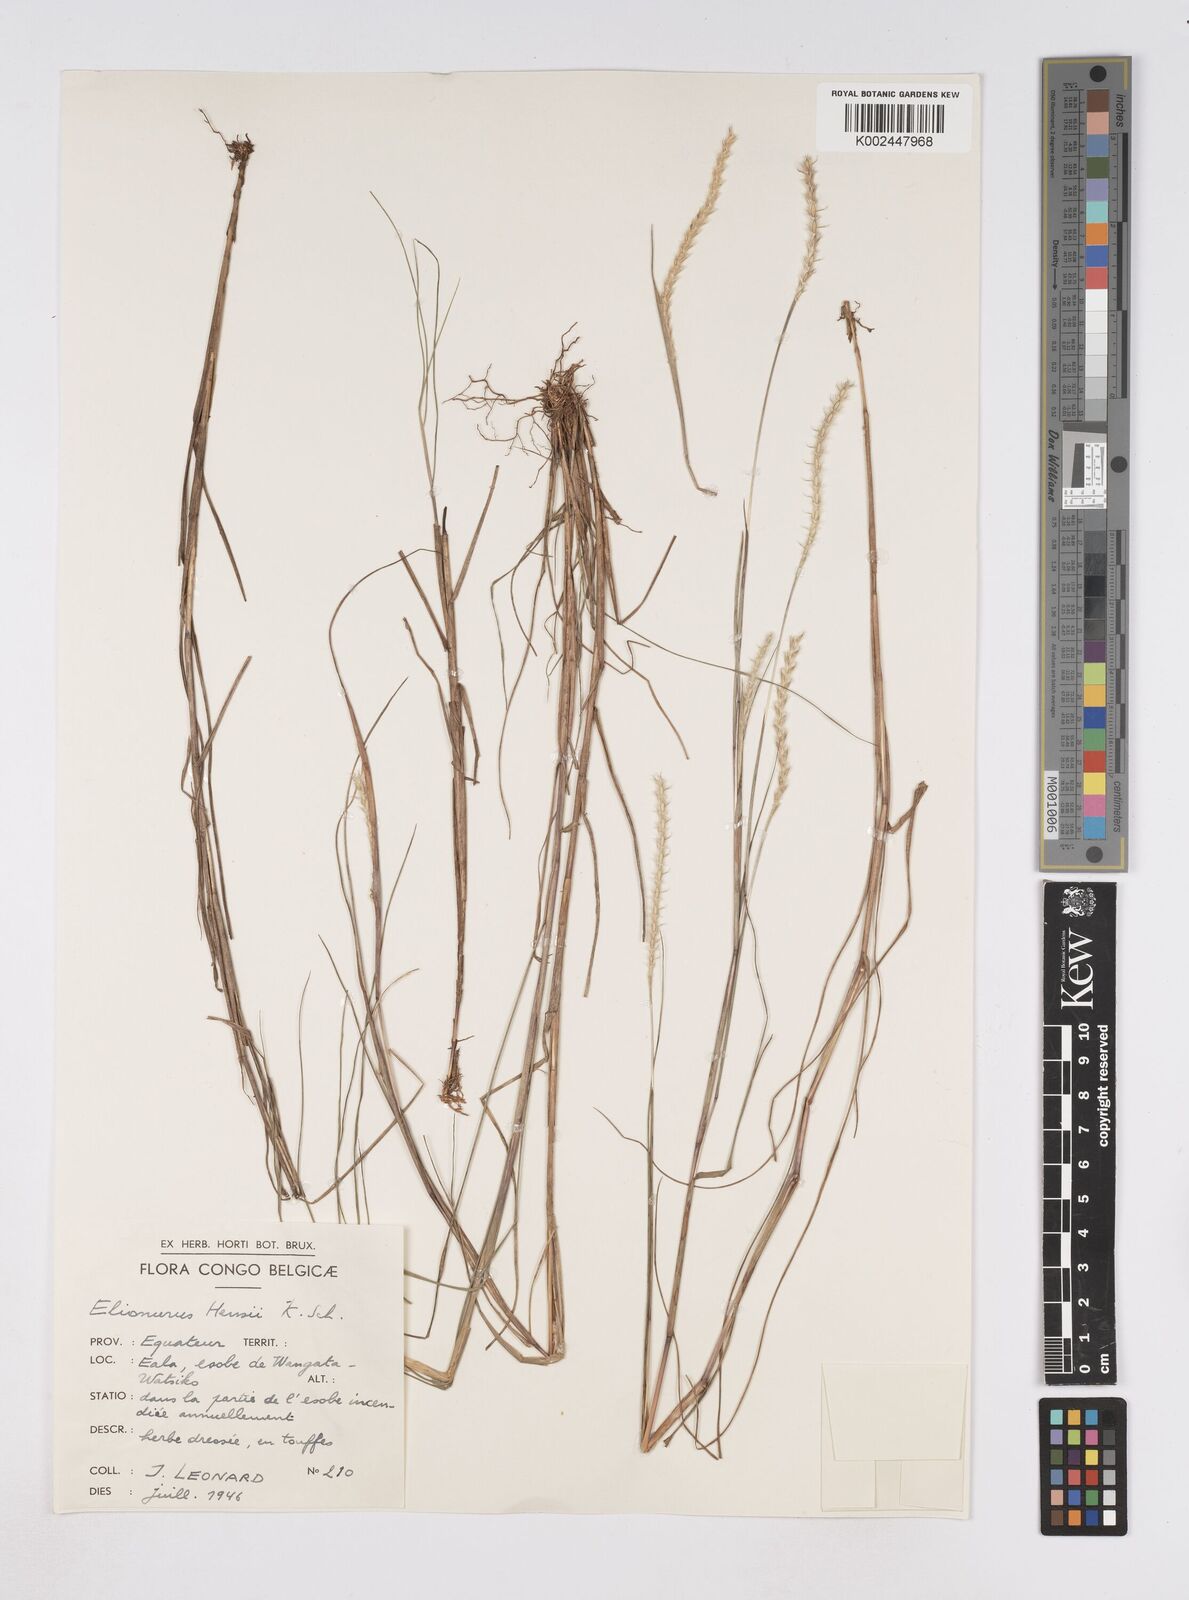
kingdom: Plantae
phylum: Tracheophyta
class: Liliopsida
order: Poales
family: Poaceae
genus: Elionurus
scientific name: Elionurus hensii
